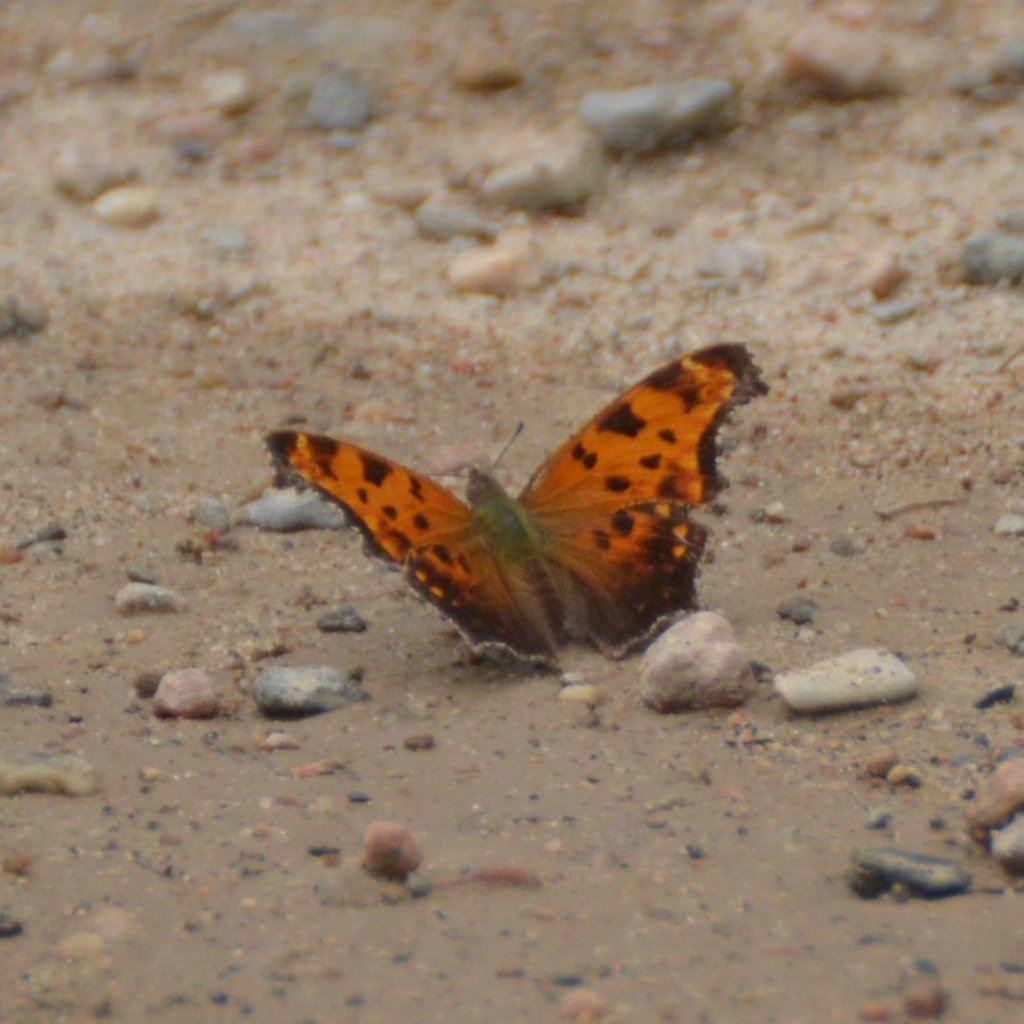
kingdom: Animalia
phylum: Arthropoda
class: Insecta
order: Lepidoptera
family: Nymphalidae
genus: Polygonia
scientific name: Polygonia comma
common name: Eastern Comma
